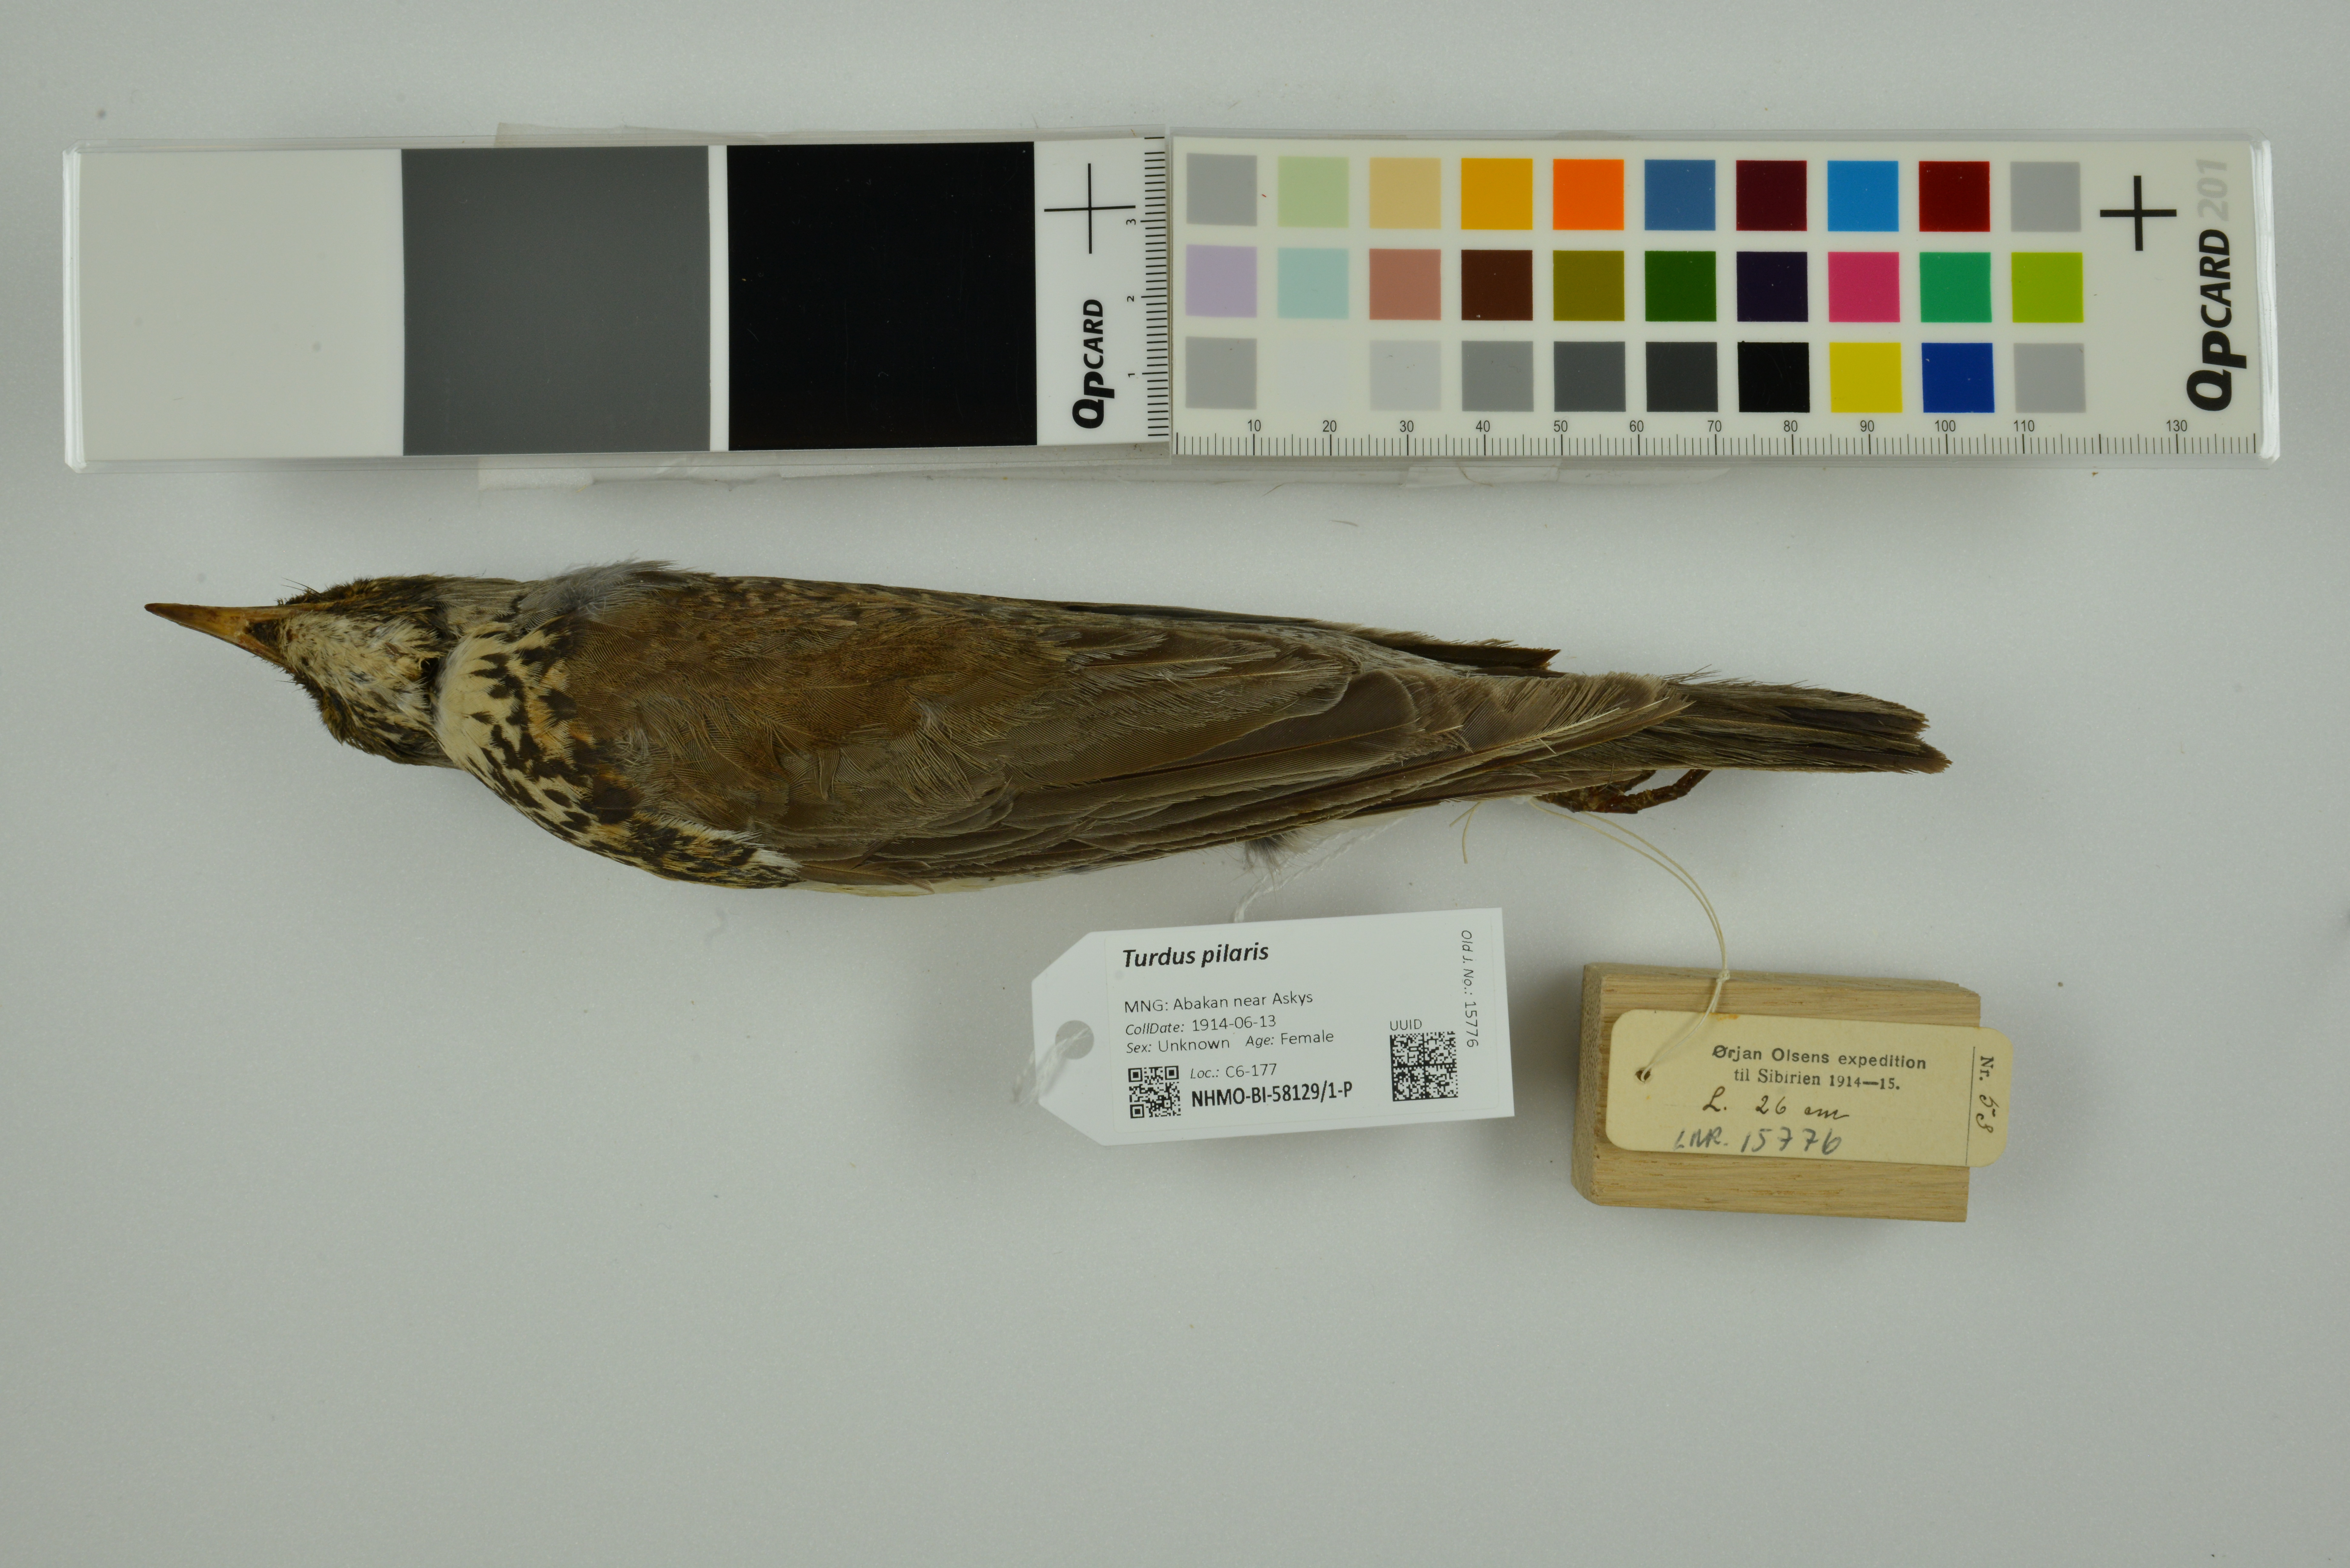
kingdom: Animalia
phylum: Chordata
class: Aves
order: Passeriformes
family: Turdidae
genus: Turdus
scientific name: Turdus pilaris
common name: Fieldfare
